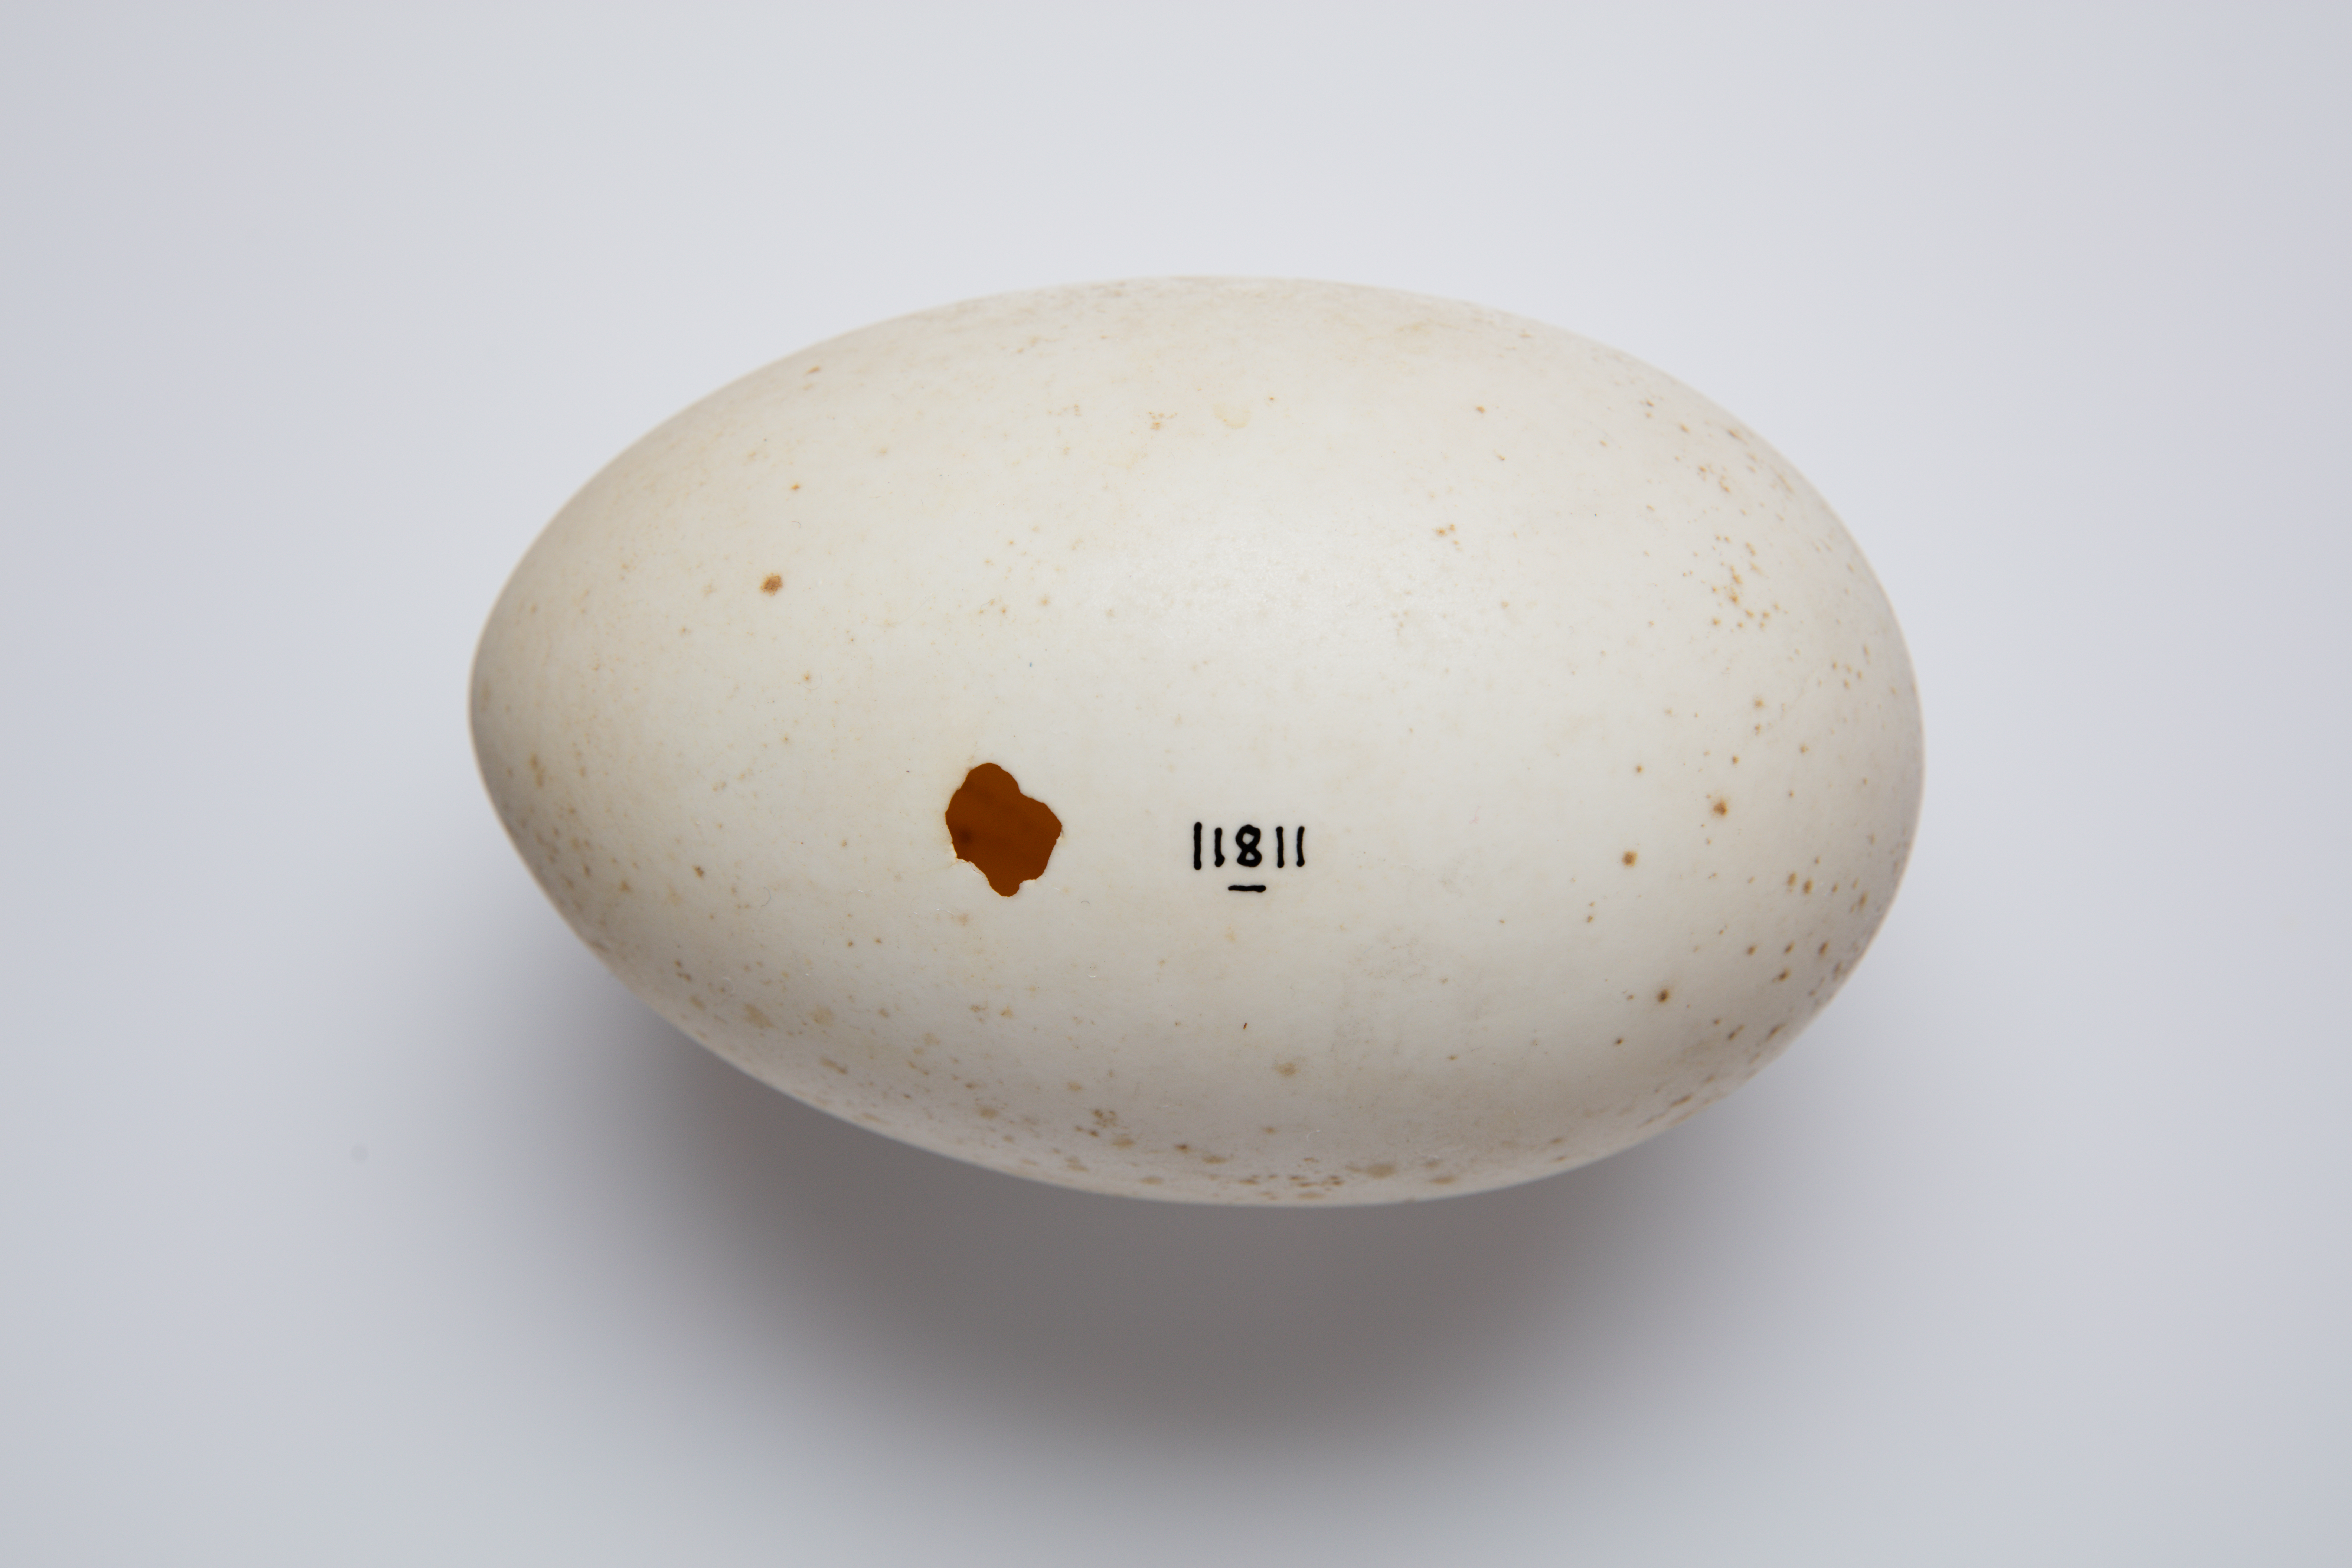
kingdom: Animalia
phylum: Chordata
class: Aves
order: Apterygiformes
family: Apterygidae
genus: Apteryx
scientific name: Apteryx mantelli
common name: North island brown kiwi
